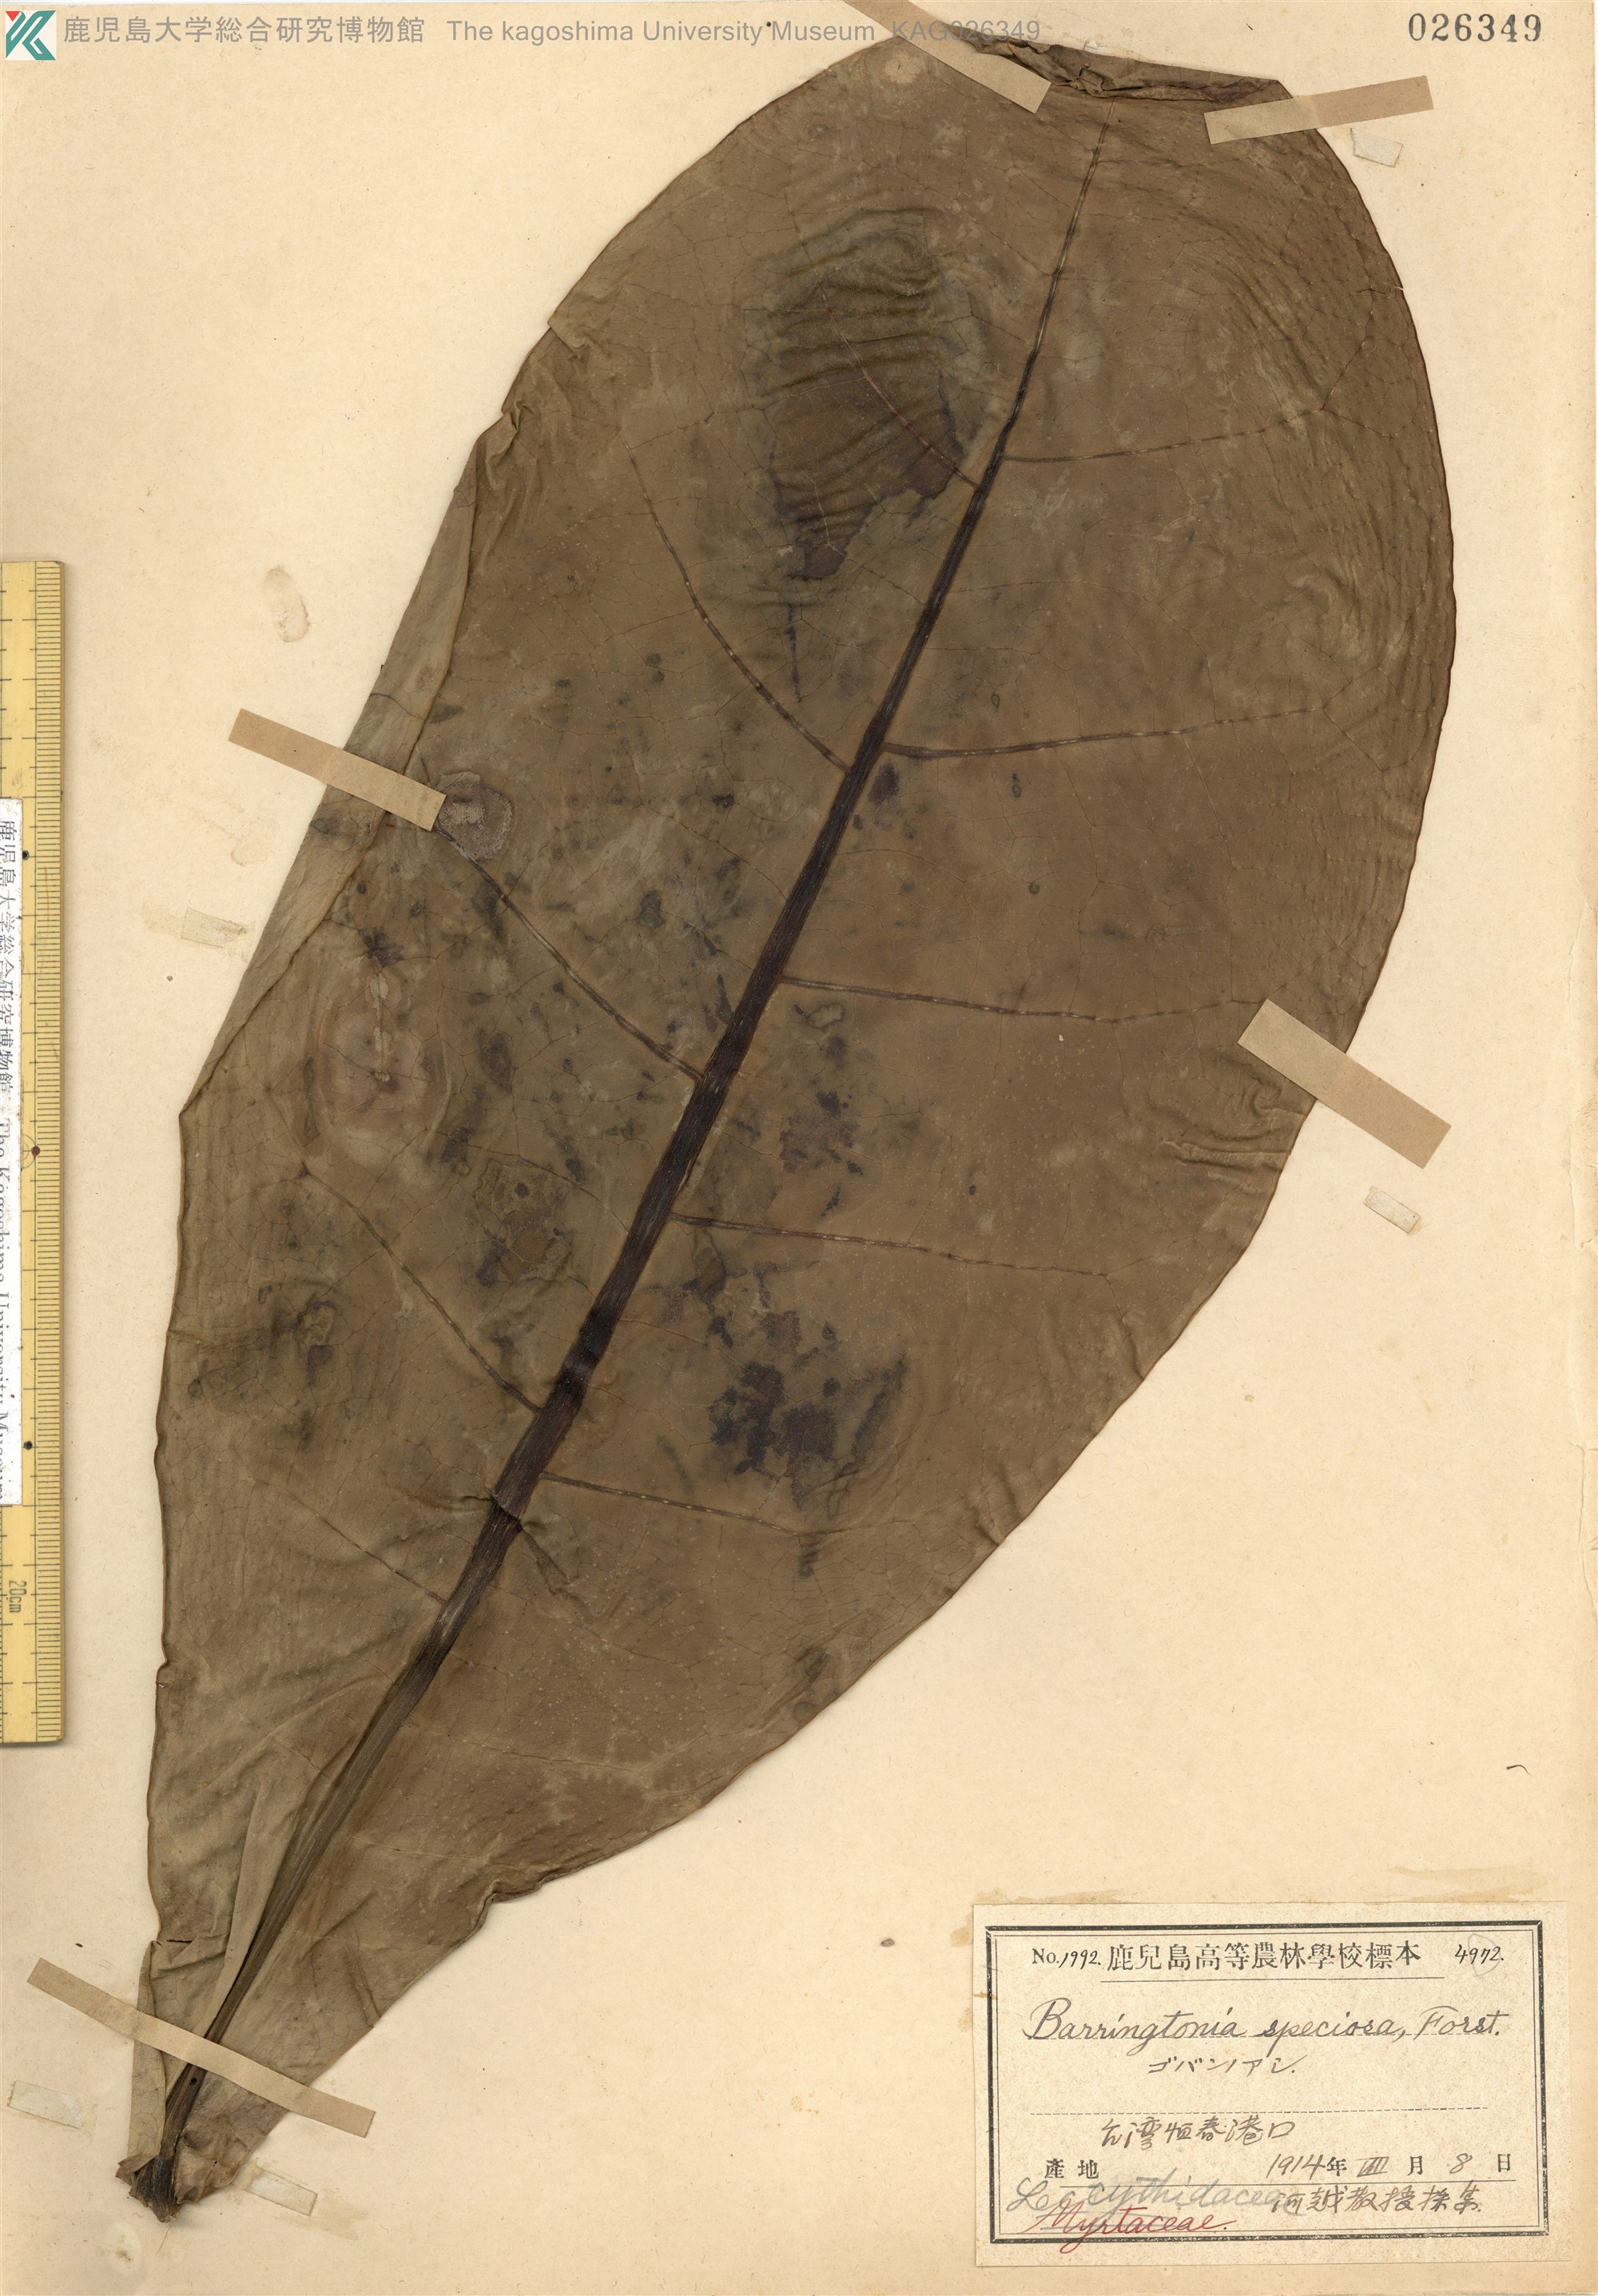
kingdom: Plantae
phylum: Tracheophyta
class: Magnoliopsida
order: Ericales
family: Lecythidaceae
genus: Barringtonia
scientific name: Barringtonia asiatica
